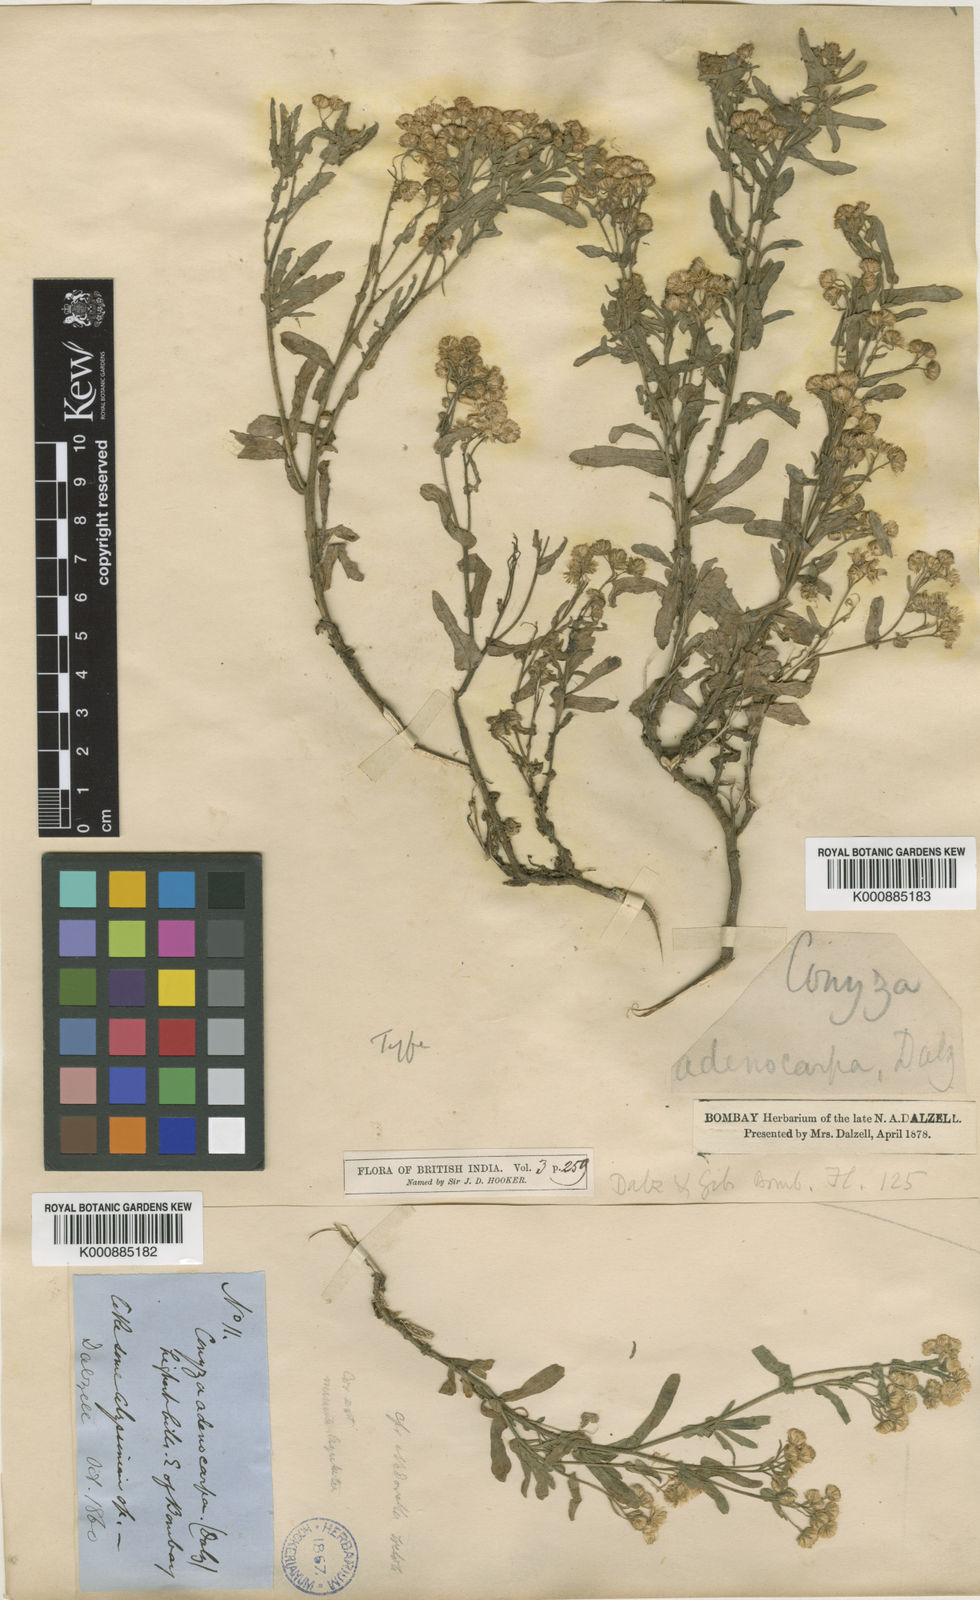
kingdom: Plantae
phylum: Tracheophyta
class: Magnoliopsida
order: Asterales
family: Asteraceae
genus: Nidorella
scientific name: Nidorella triloba
